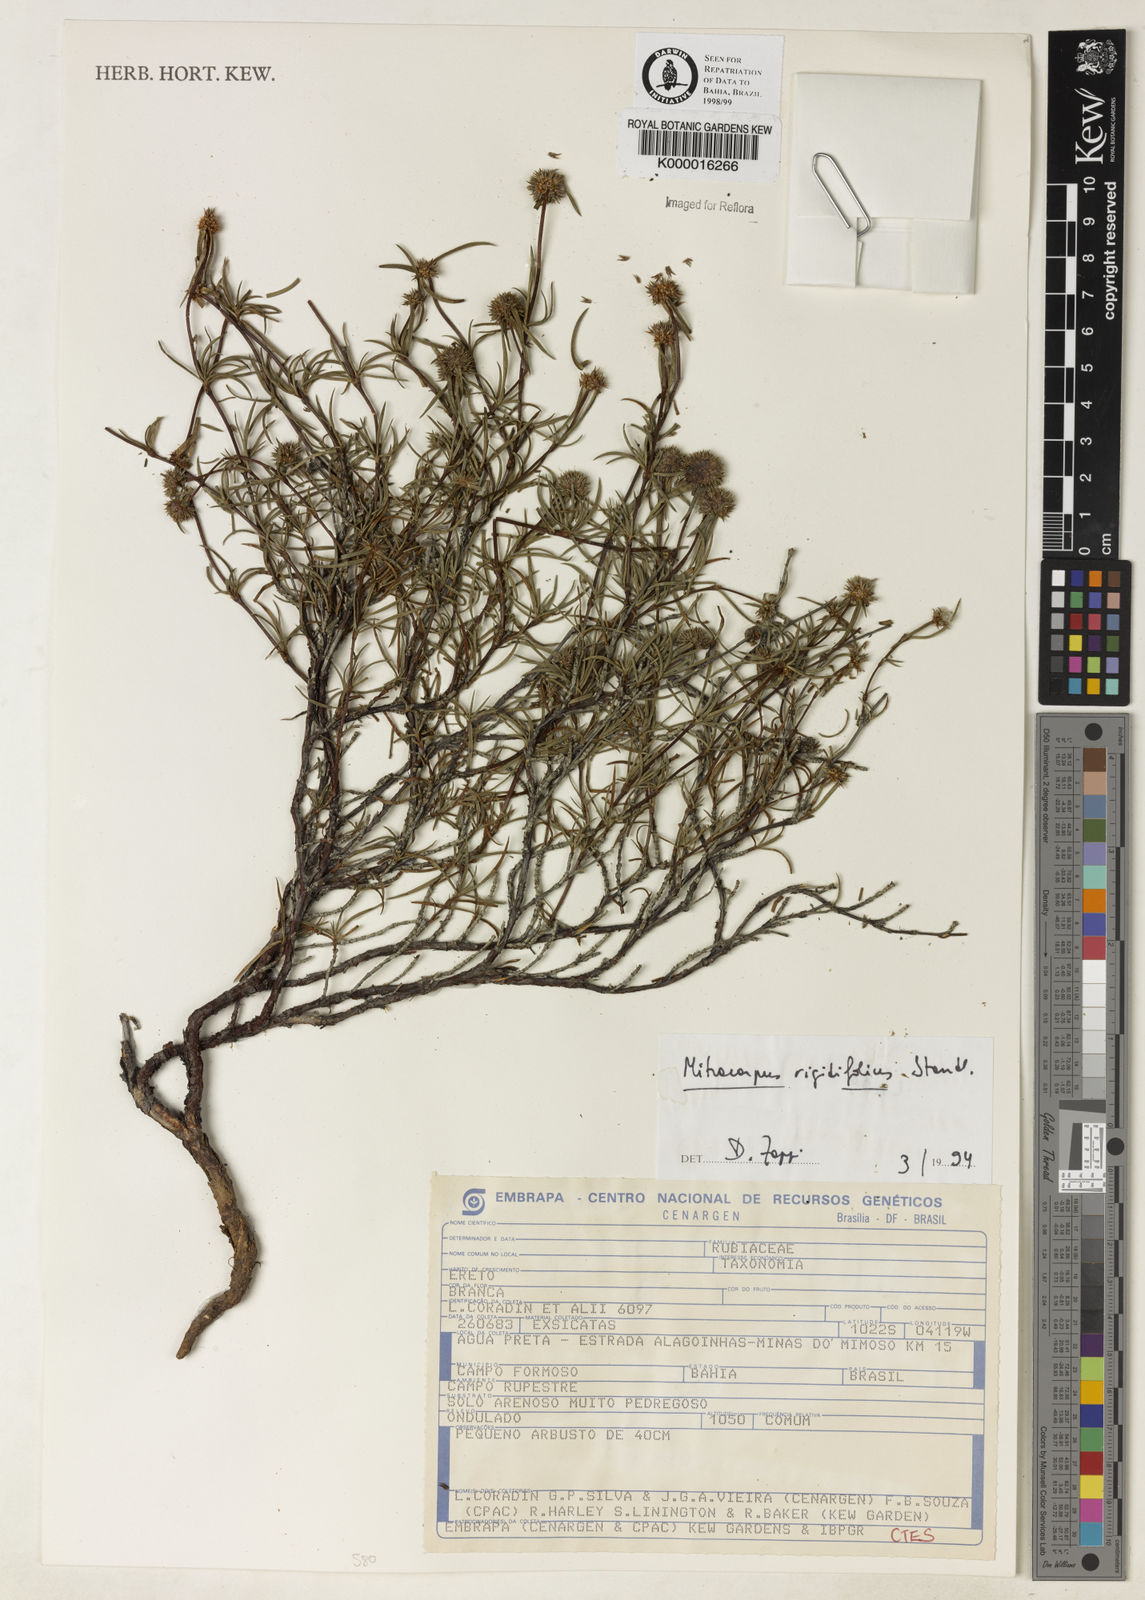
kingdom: Plantae
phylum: Tracheophyta
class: Magnoliopsida
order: Gentianales
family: Rubiaceae
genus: Mitracarpus
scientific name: Mitracarpus rigidifolius
